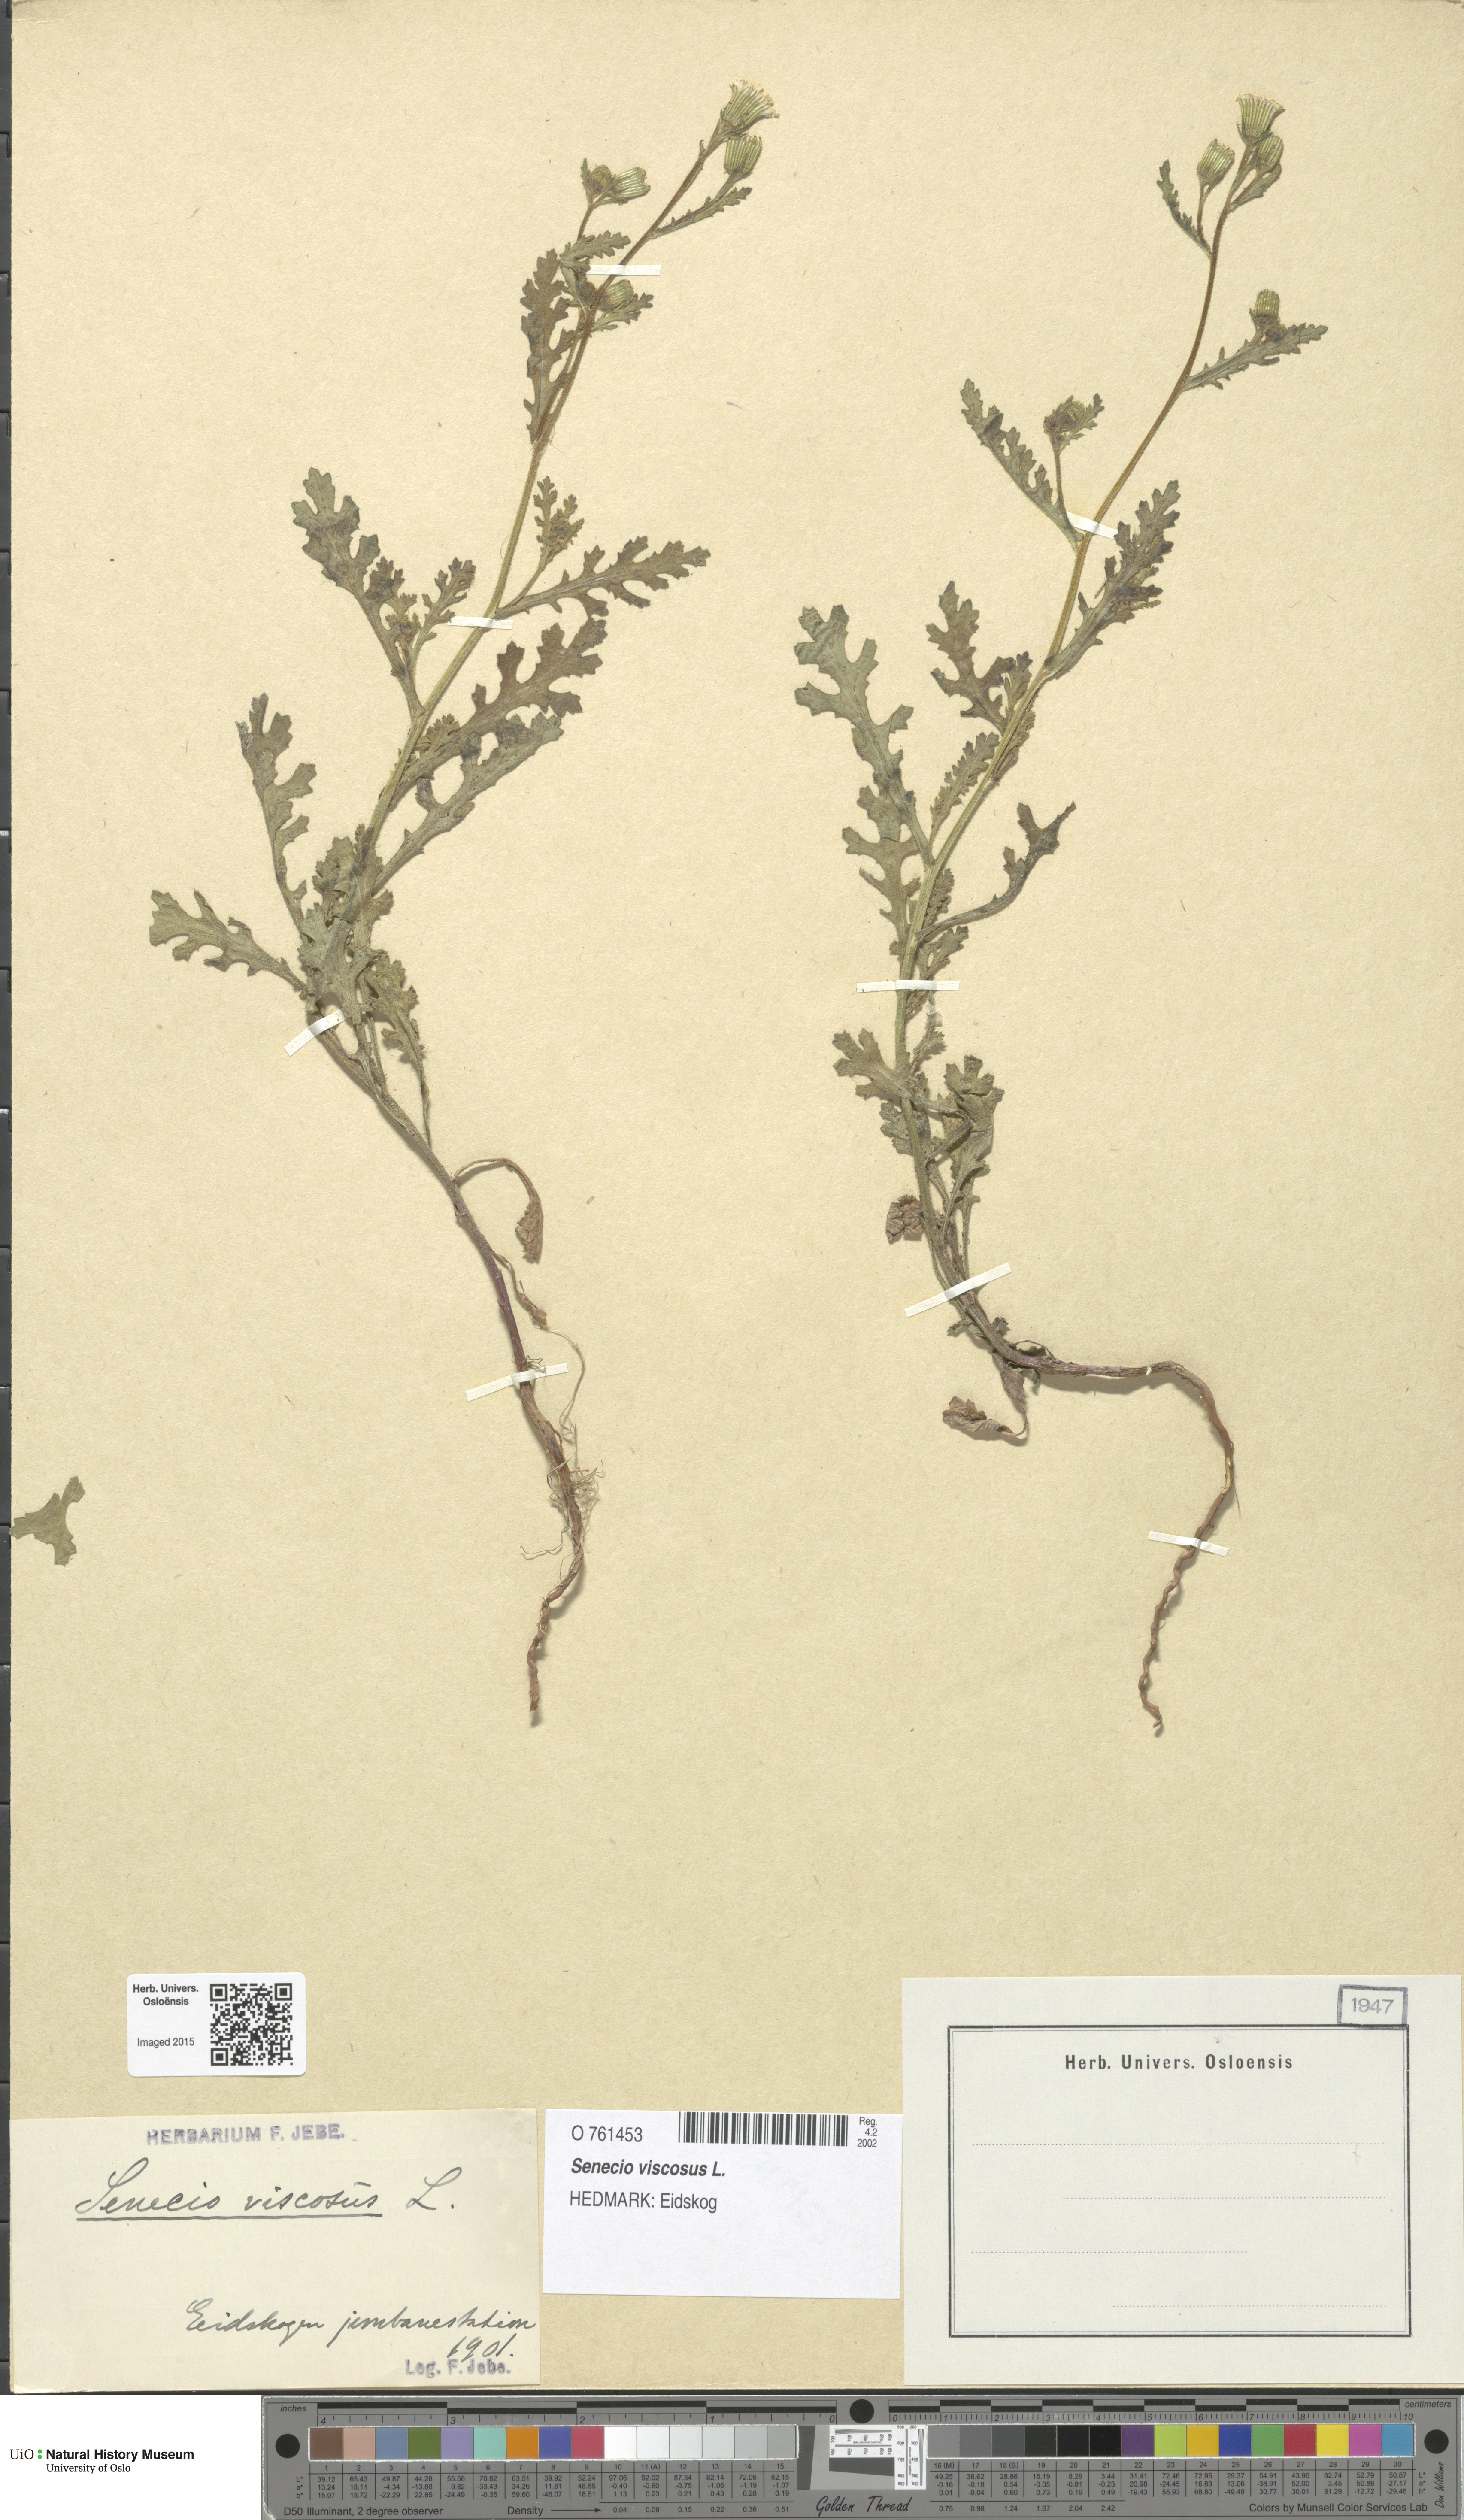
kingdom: Plantae
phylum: Tracheophyta
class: Magnoliopsida
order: Asterales
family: Asteraceae
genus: Senecio
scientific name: Senecio viscosus
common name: Sticky groundsel
